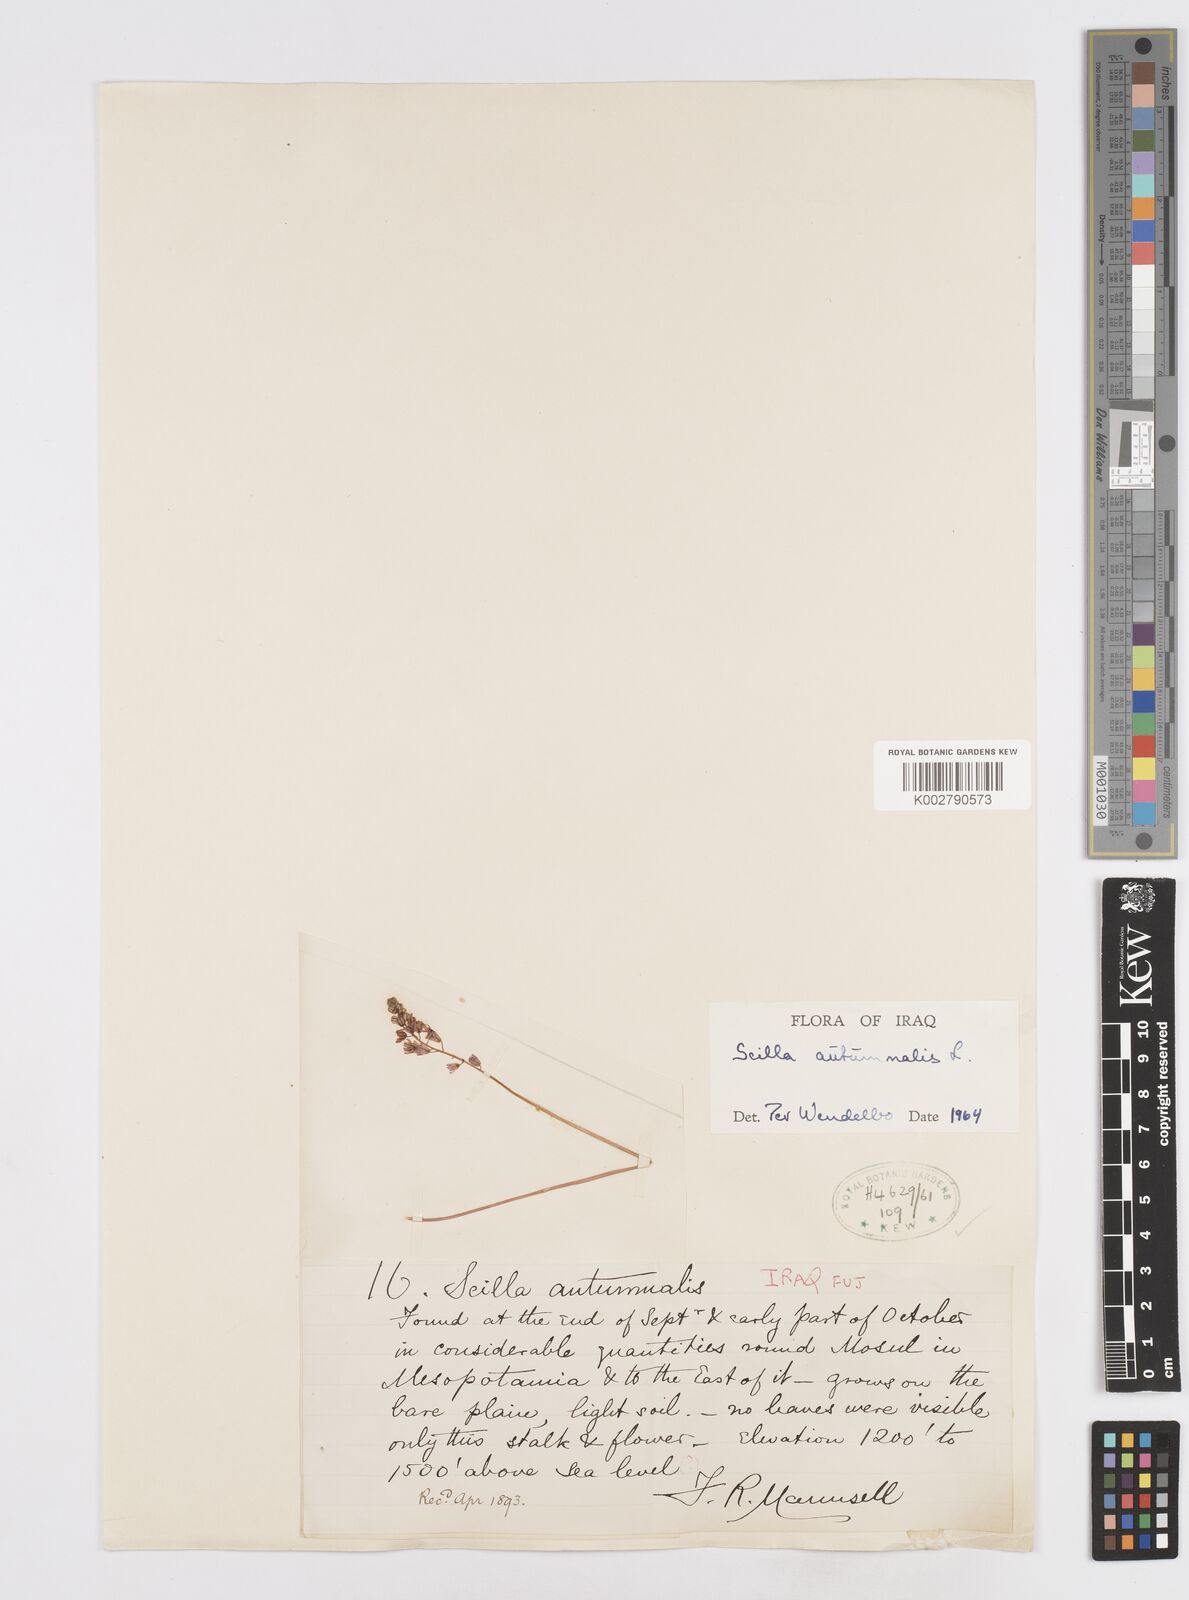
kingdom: Plantae
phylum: Tracheophyta
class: Liliopsida
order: Asparagales
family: Asparagaceae
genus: Prospero
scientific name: Prospero autumnale
